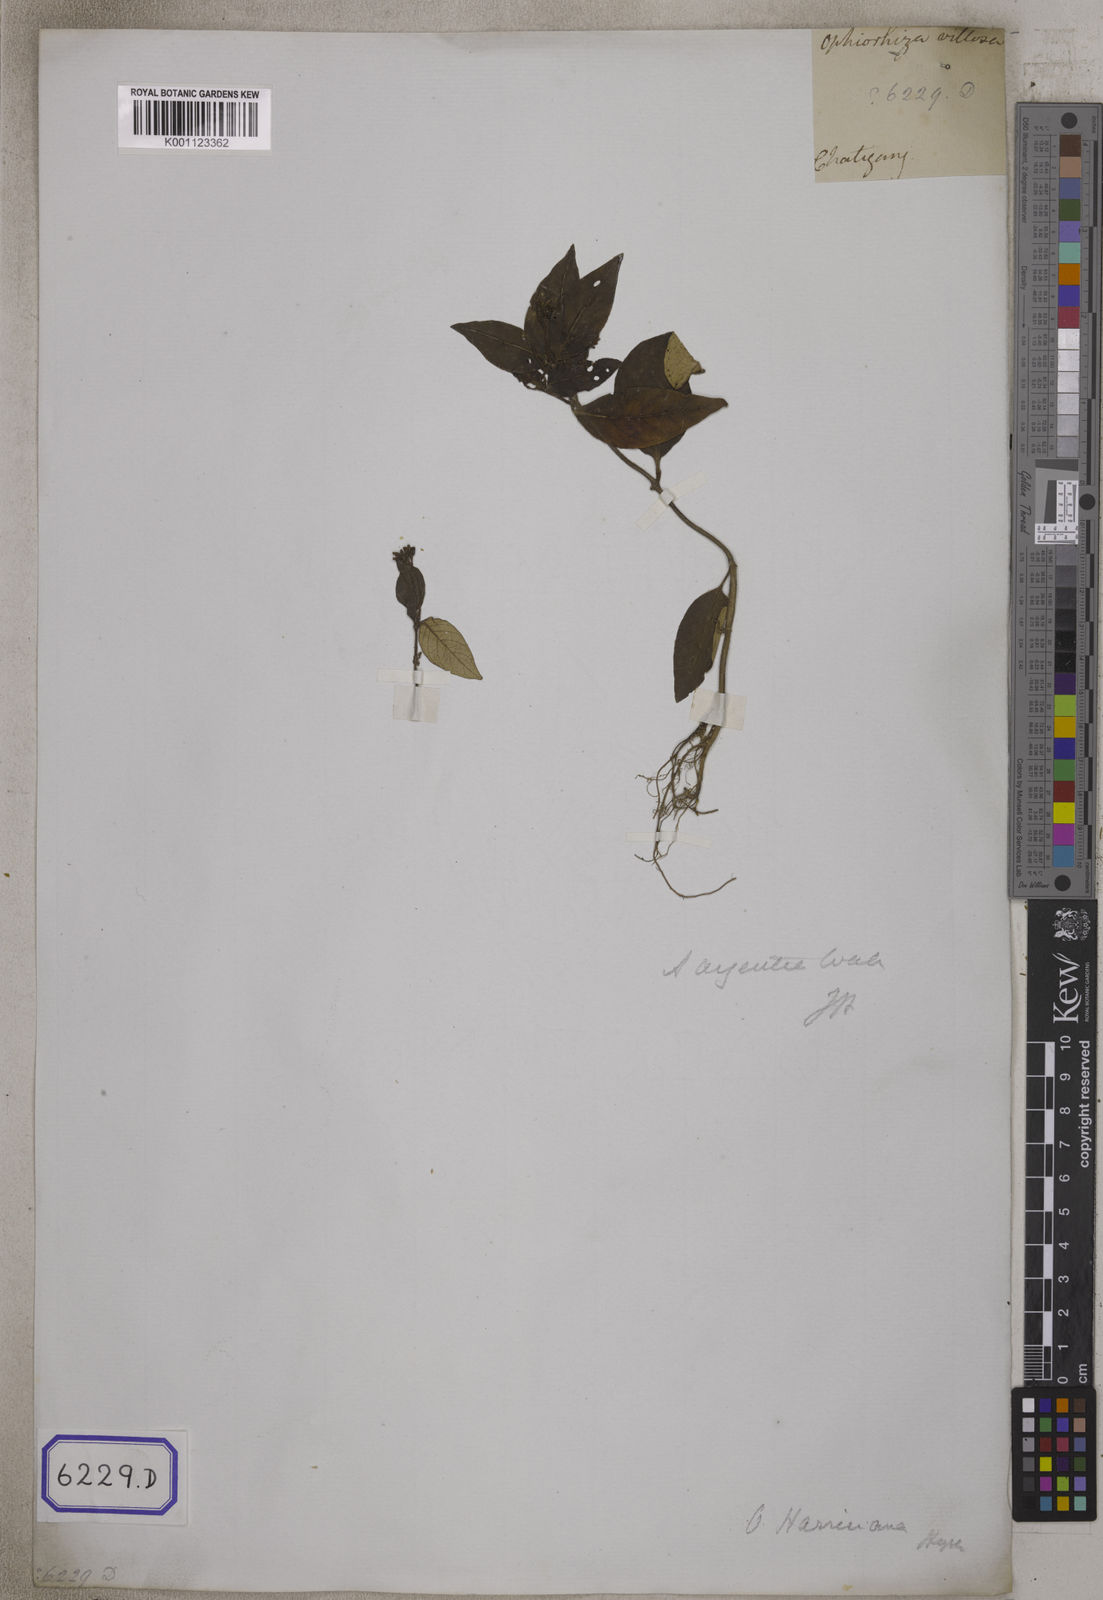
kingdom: Plantae
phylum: Tracheophyta
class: Magnoliopsida
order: Gentianales
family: Rubiaceae
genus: Ophiorrhiza
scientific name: Ophiorrhiza
